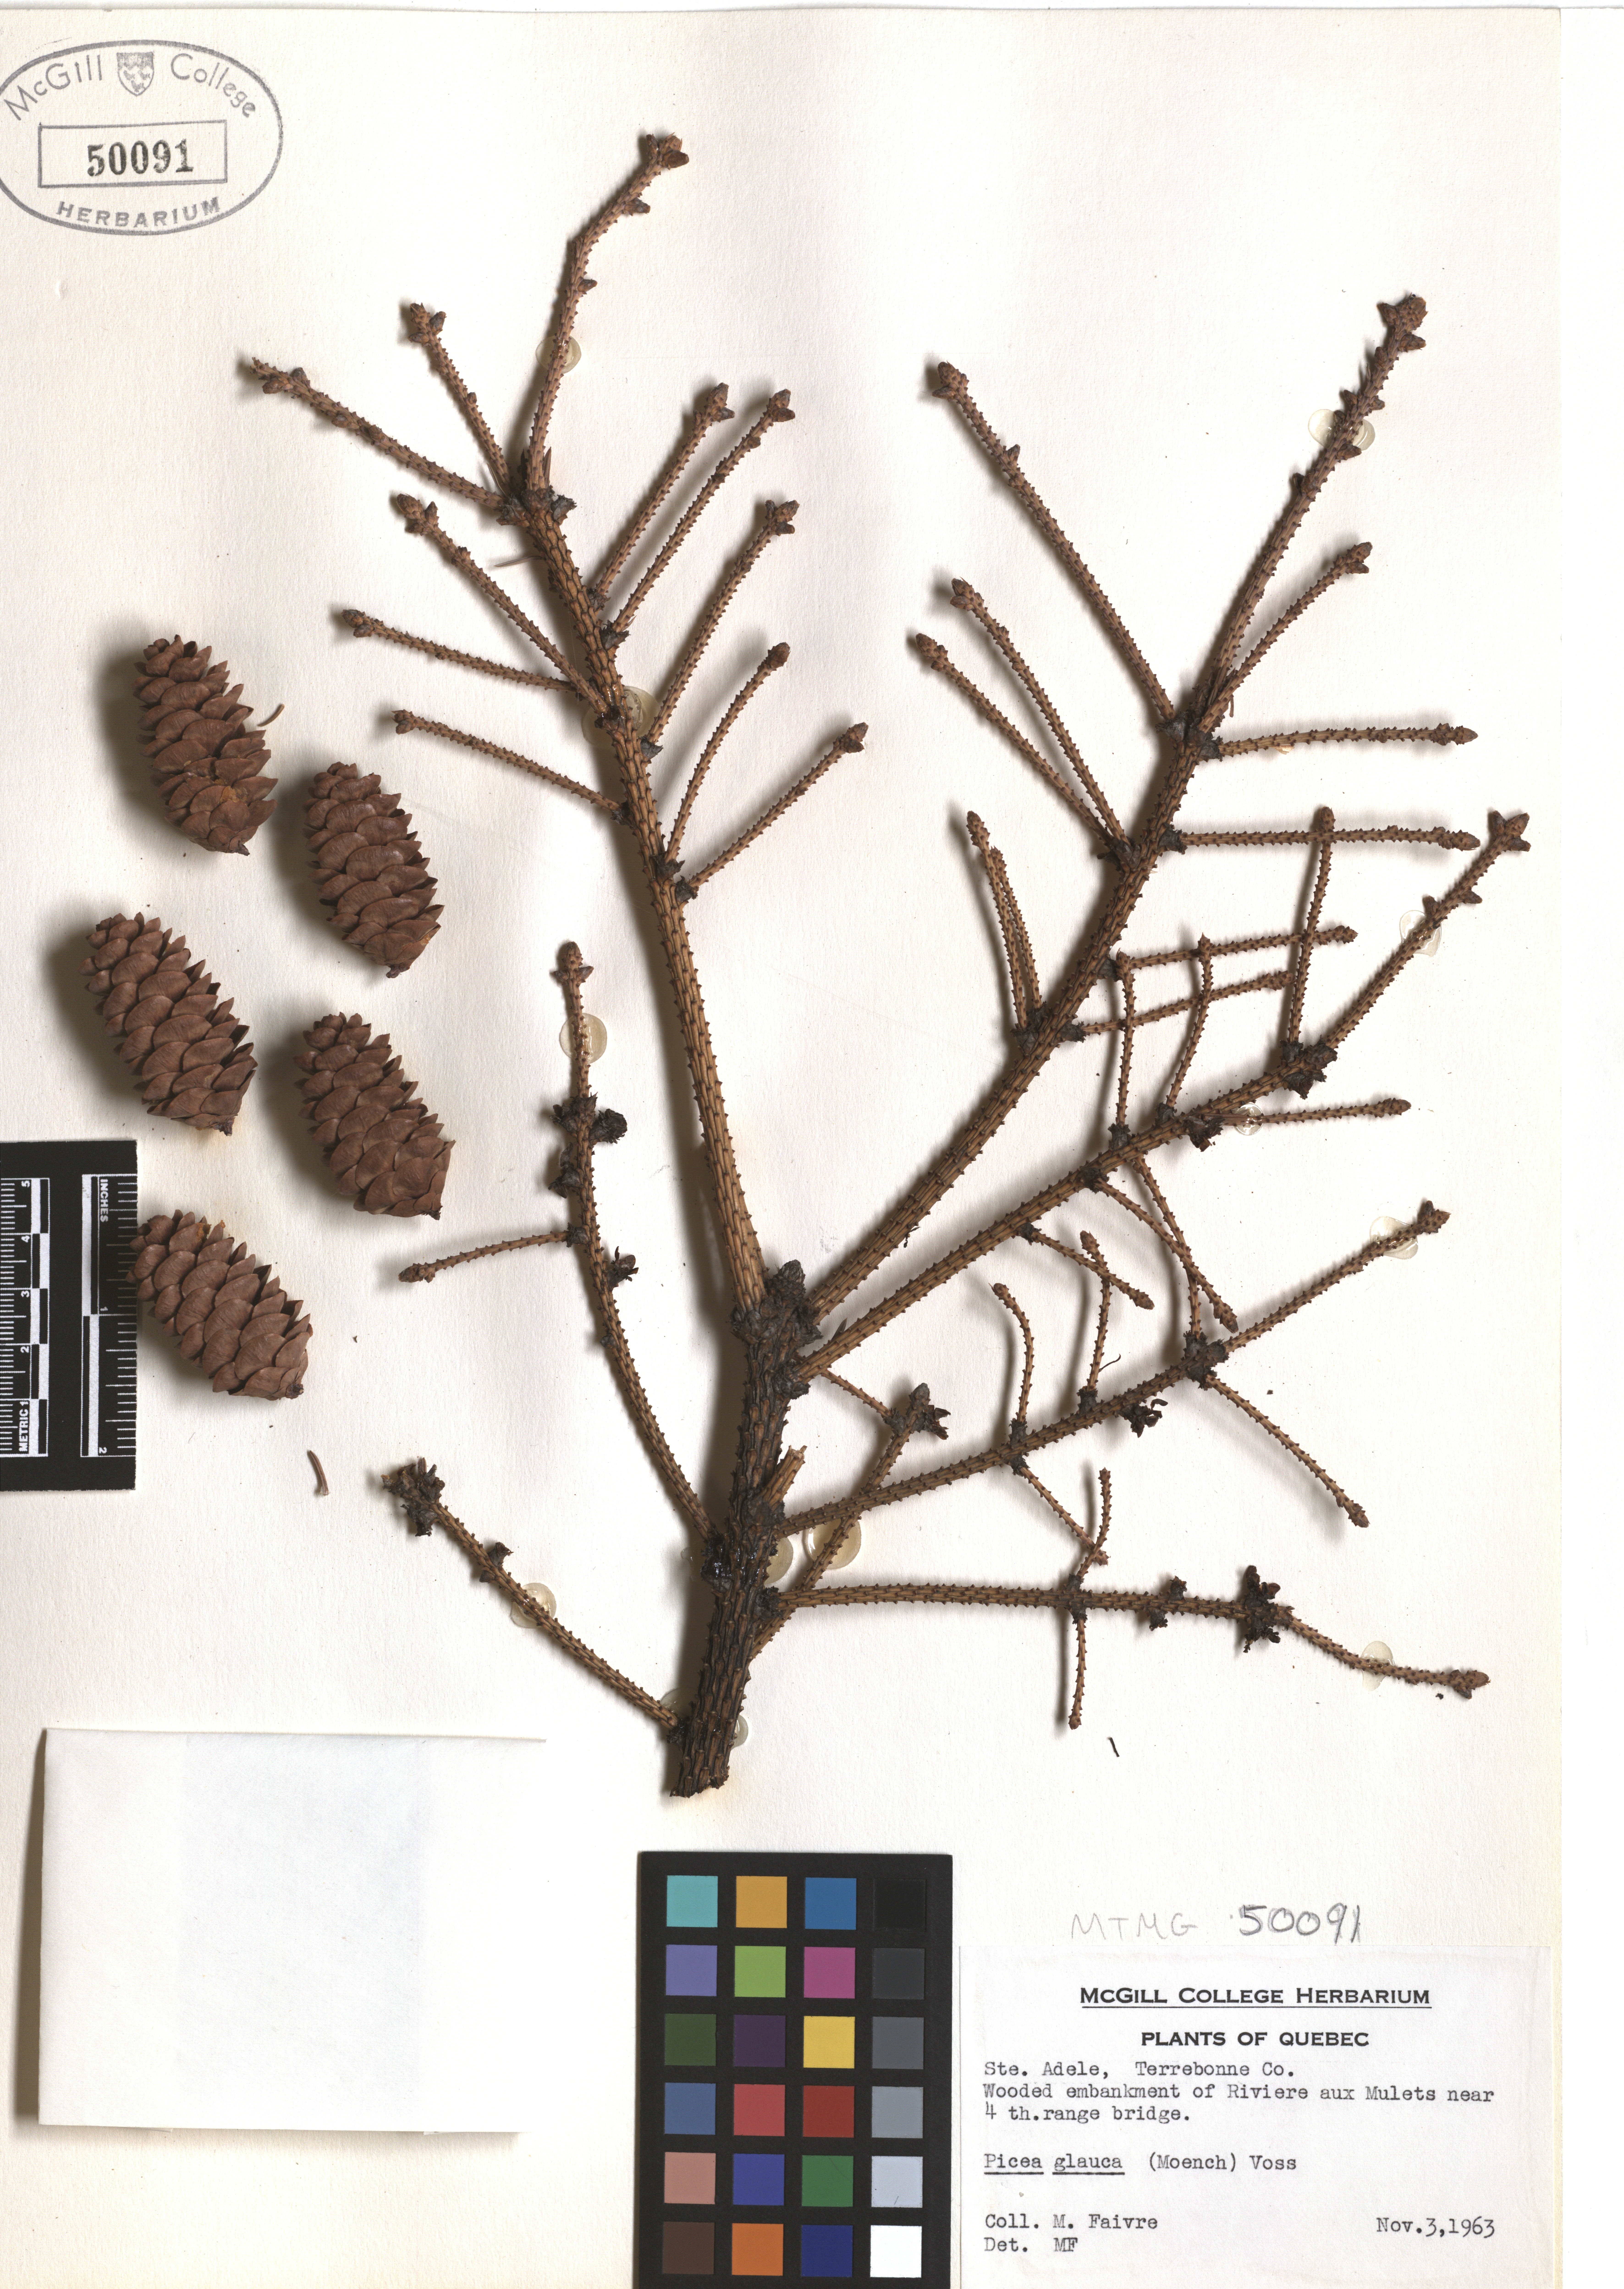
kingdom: Plantae
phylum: Tracheophyta
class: Pinopsida
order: Pinales
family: Pinaceae
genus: Picea
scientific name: Picea glauca
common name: White spruce
